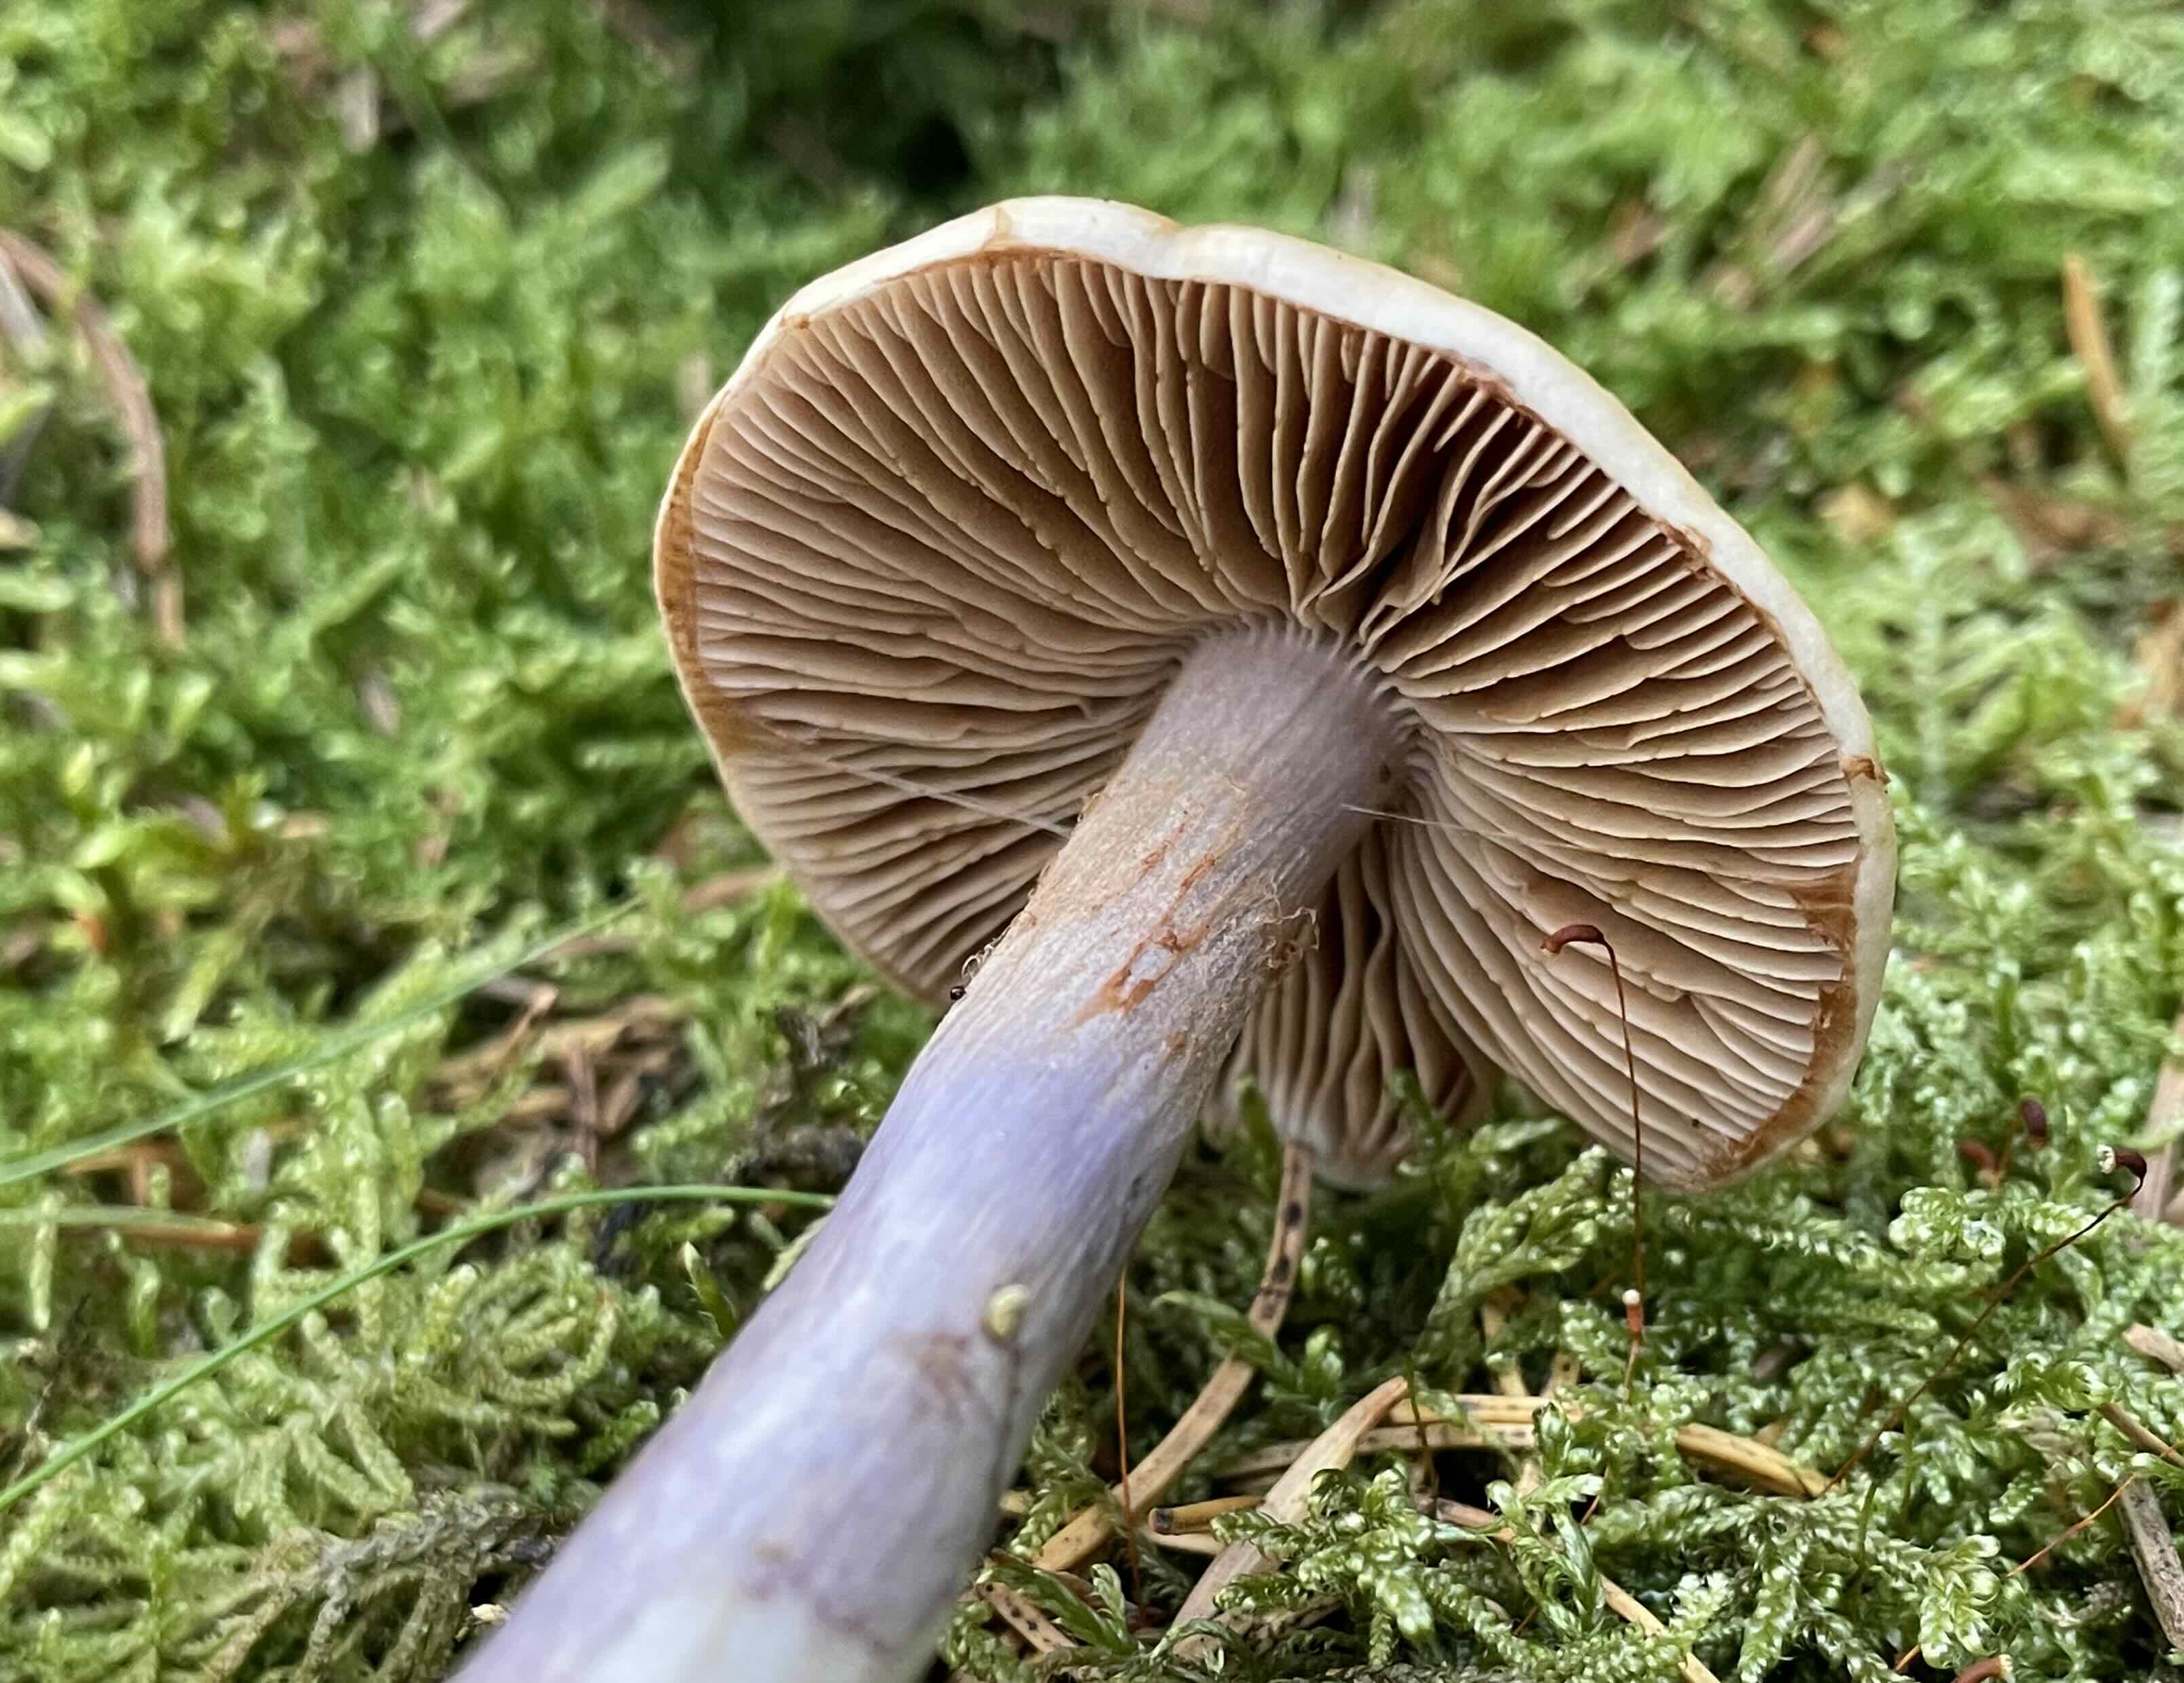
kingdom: Fungi
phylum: Basidiomycota
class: Agaricomycetes
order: Agaricales
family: Cortinariaceae
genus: Cortinarius
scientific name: Cortinarius collinitus
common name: spættet slørhat
